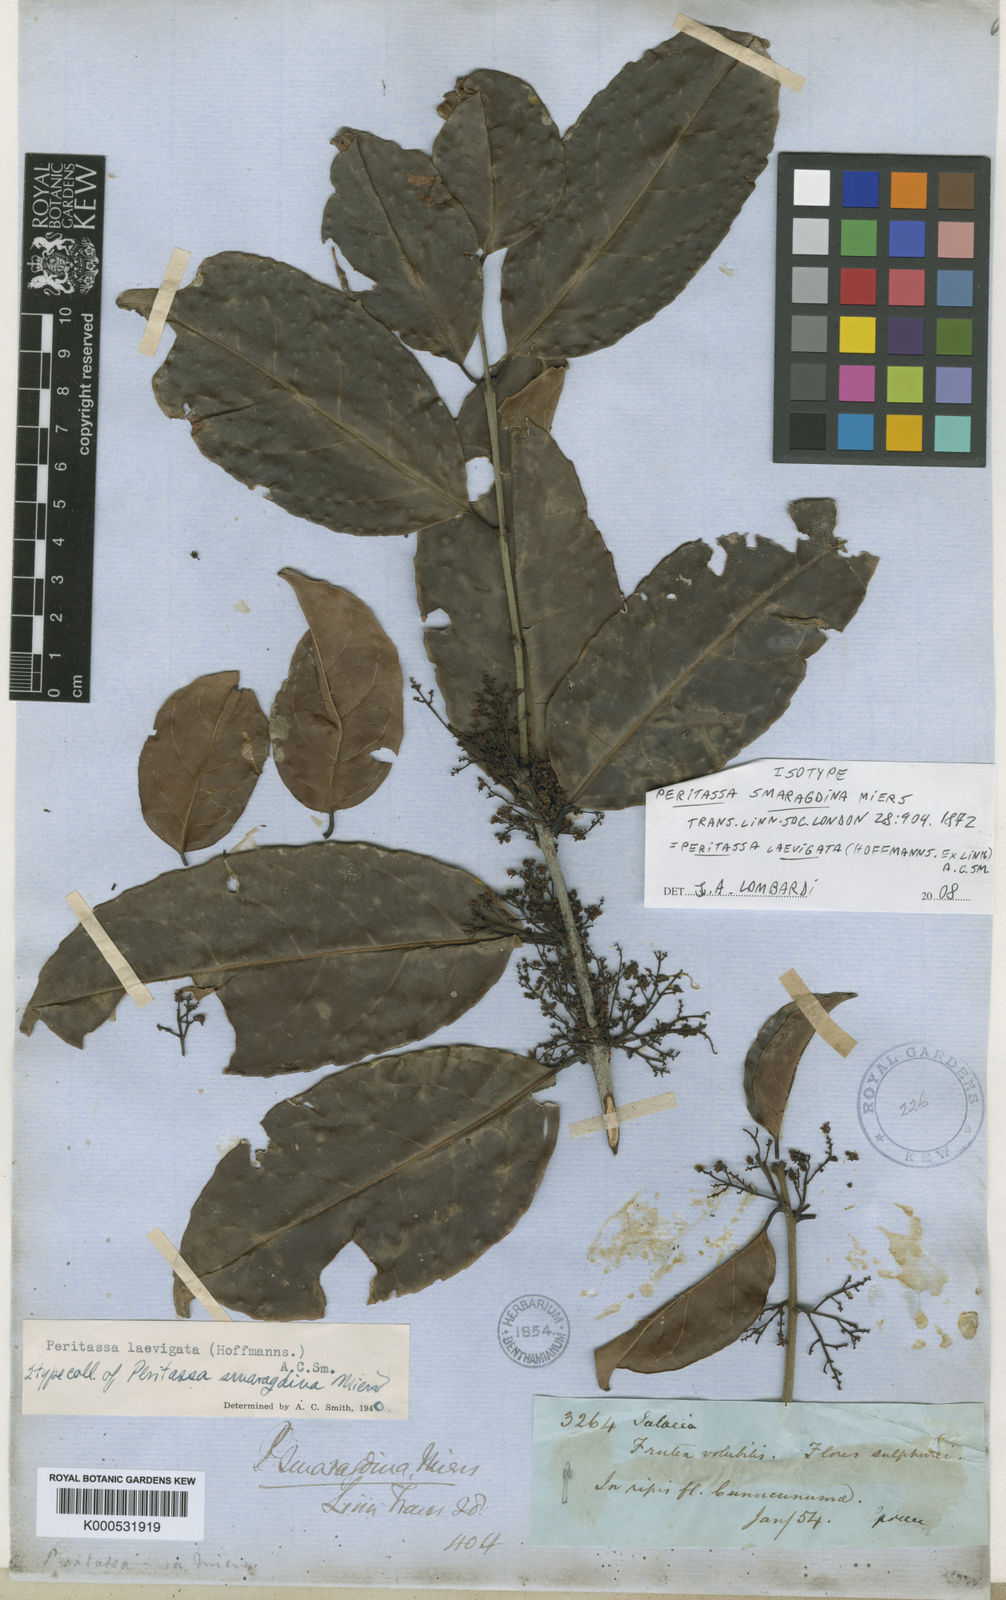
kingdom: Plantae
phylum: Tracheophyta
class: Magnoliopsida
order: Celastrales
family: Celastraceae
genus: Peritassa
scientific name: Peritassa laevigata
